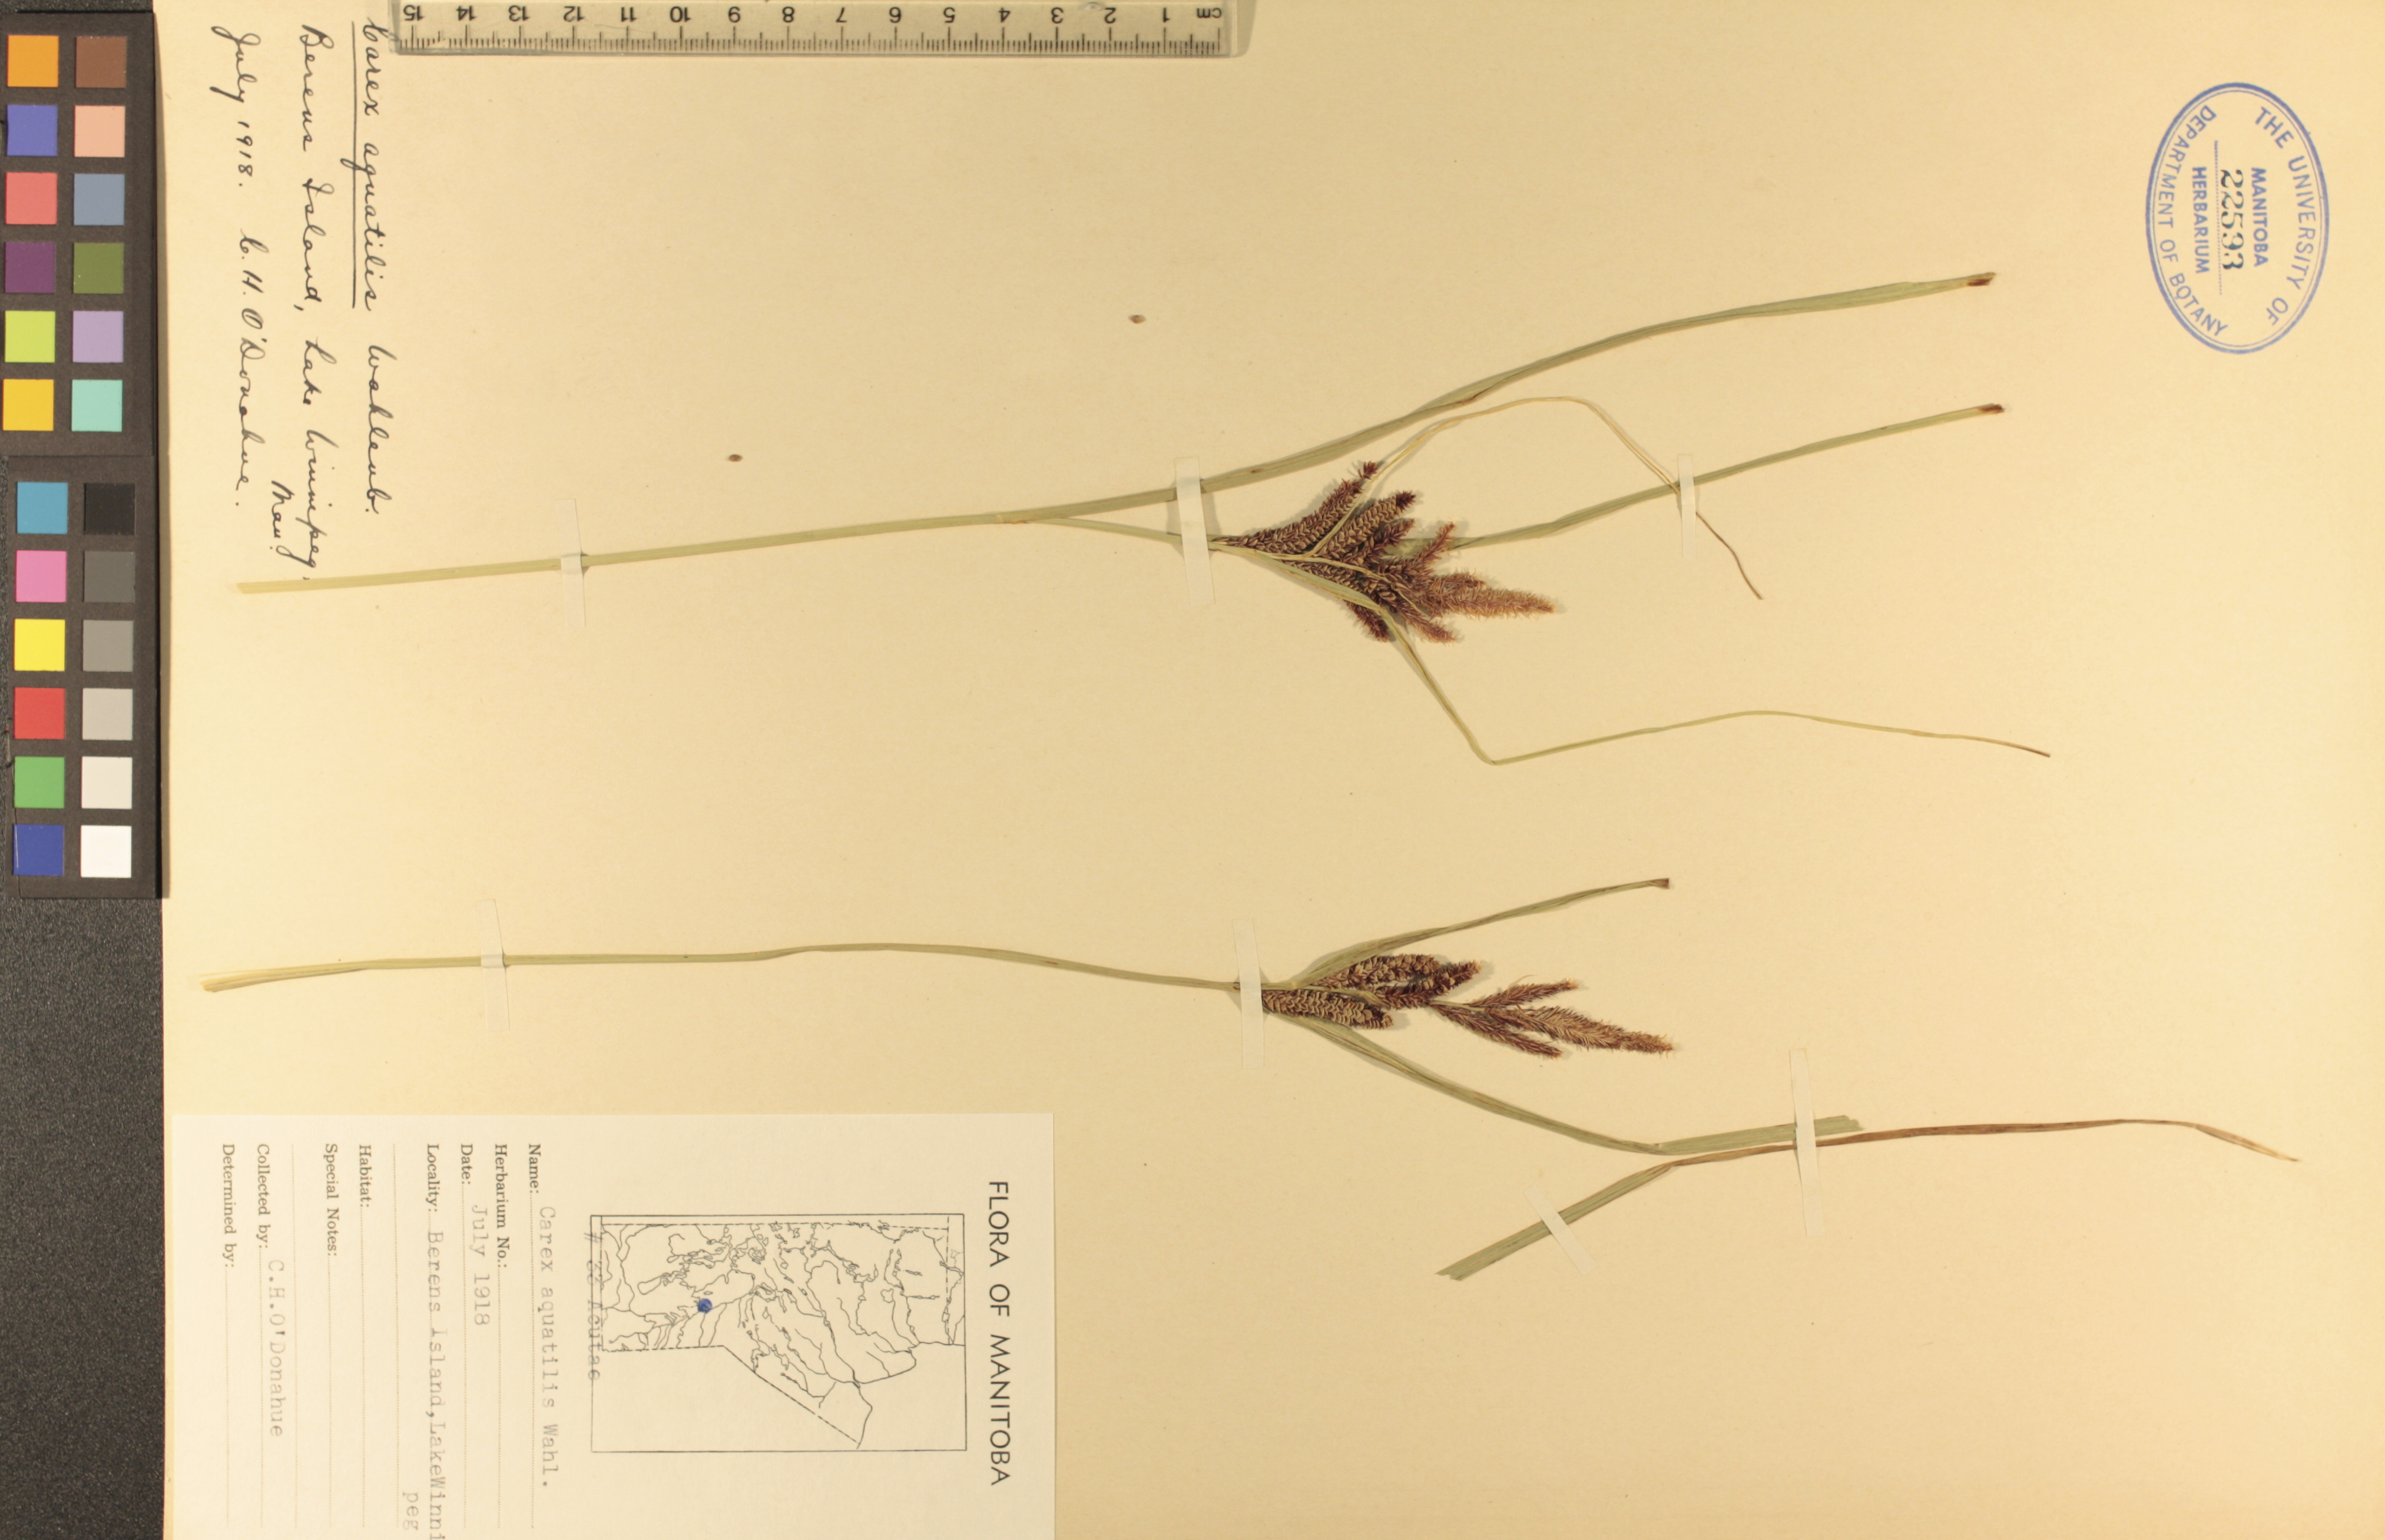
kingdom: Plantae
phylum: Tracheophyta
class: Liliopsida
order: Poales
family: Cyperaceae
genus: Carex
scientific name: Carex aquatilis
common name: Water sedge
